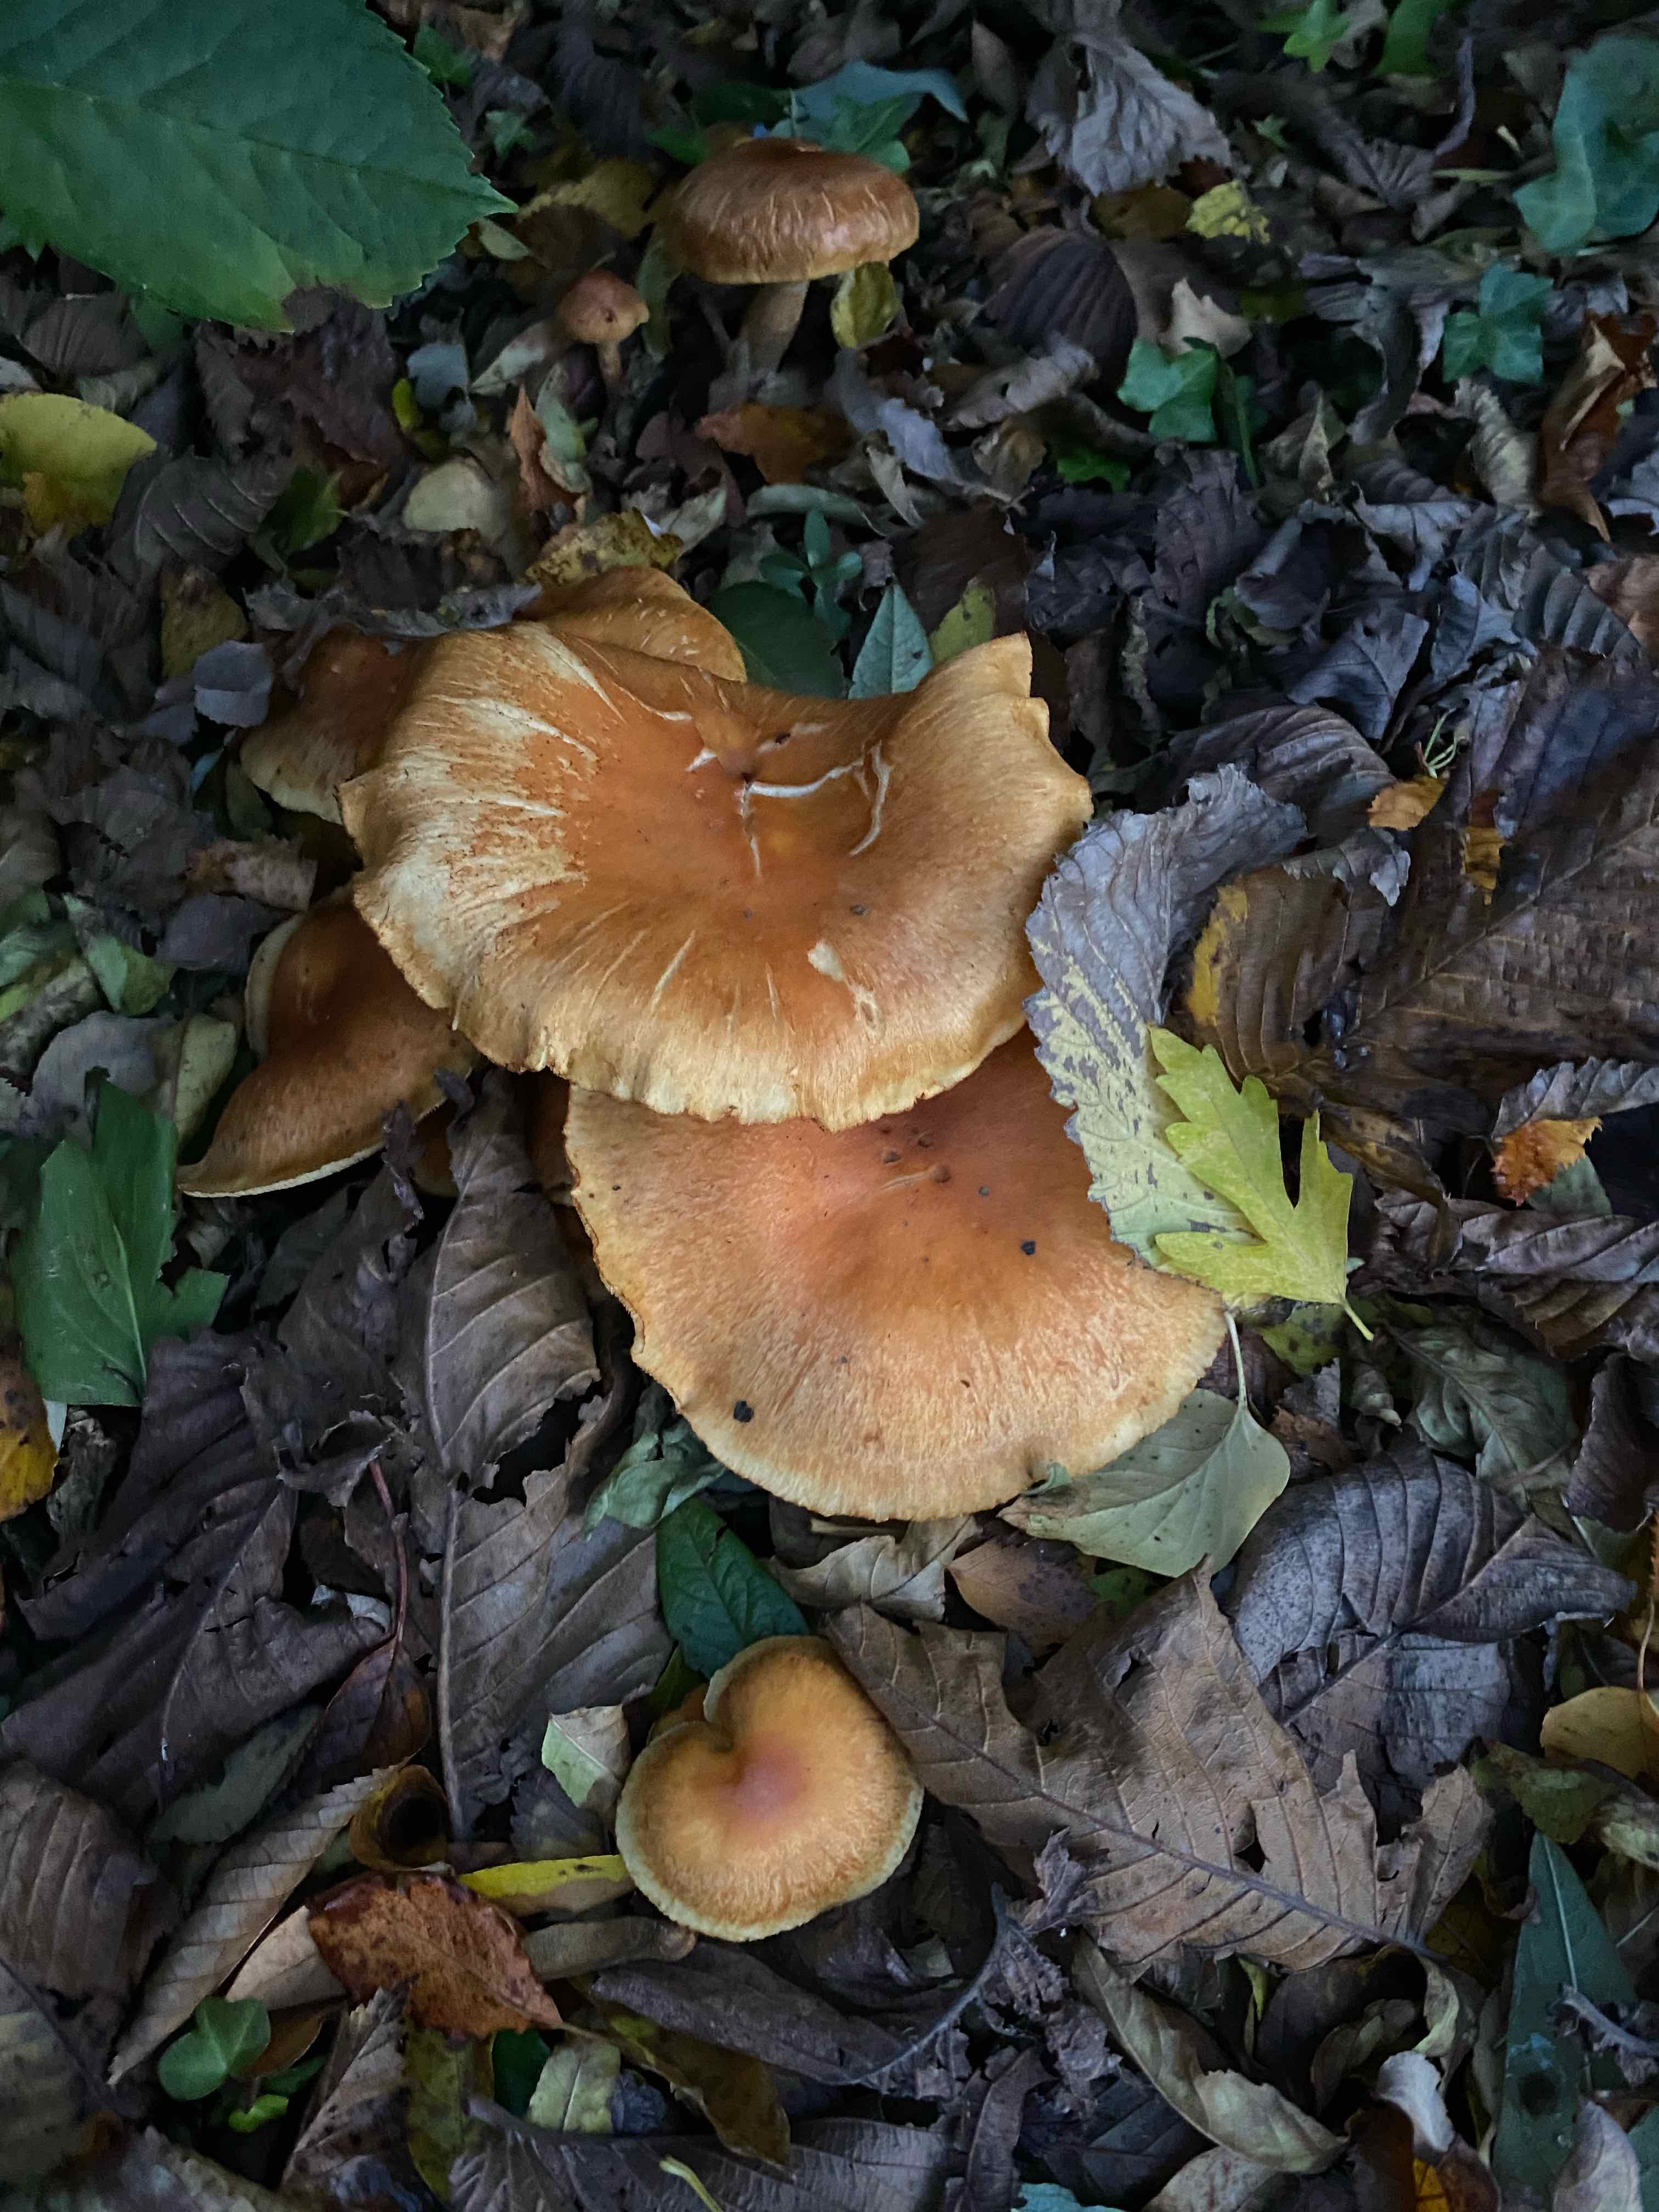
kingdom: Fungi
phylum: Basidiomycota
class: Agaricomycetes
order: Agaricales
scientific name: Agaricales
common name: champignonordenen
